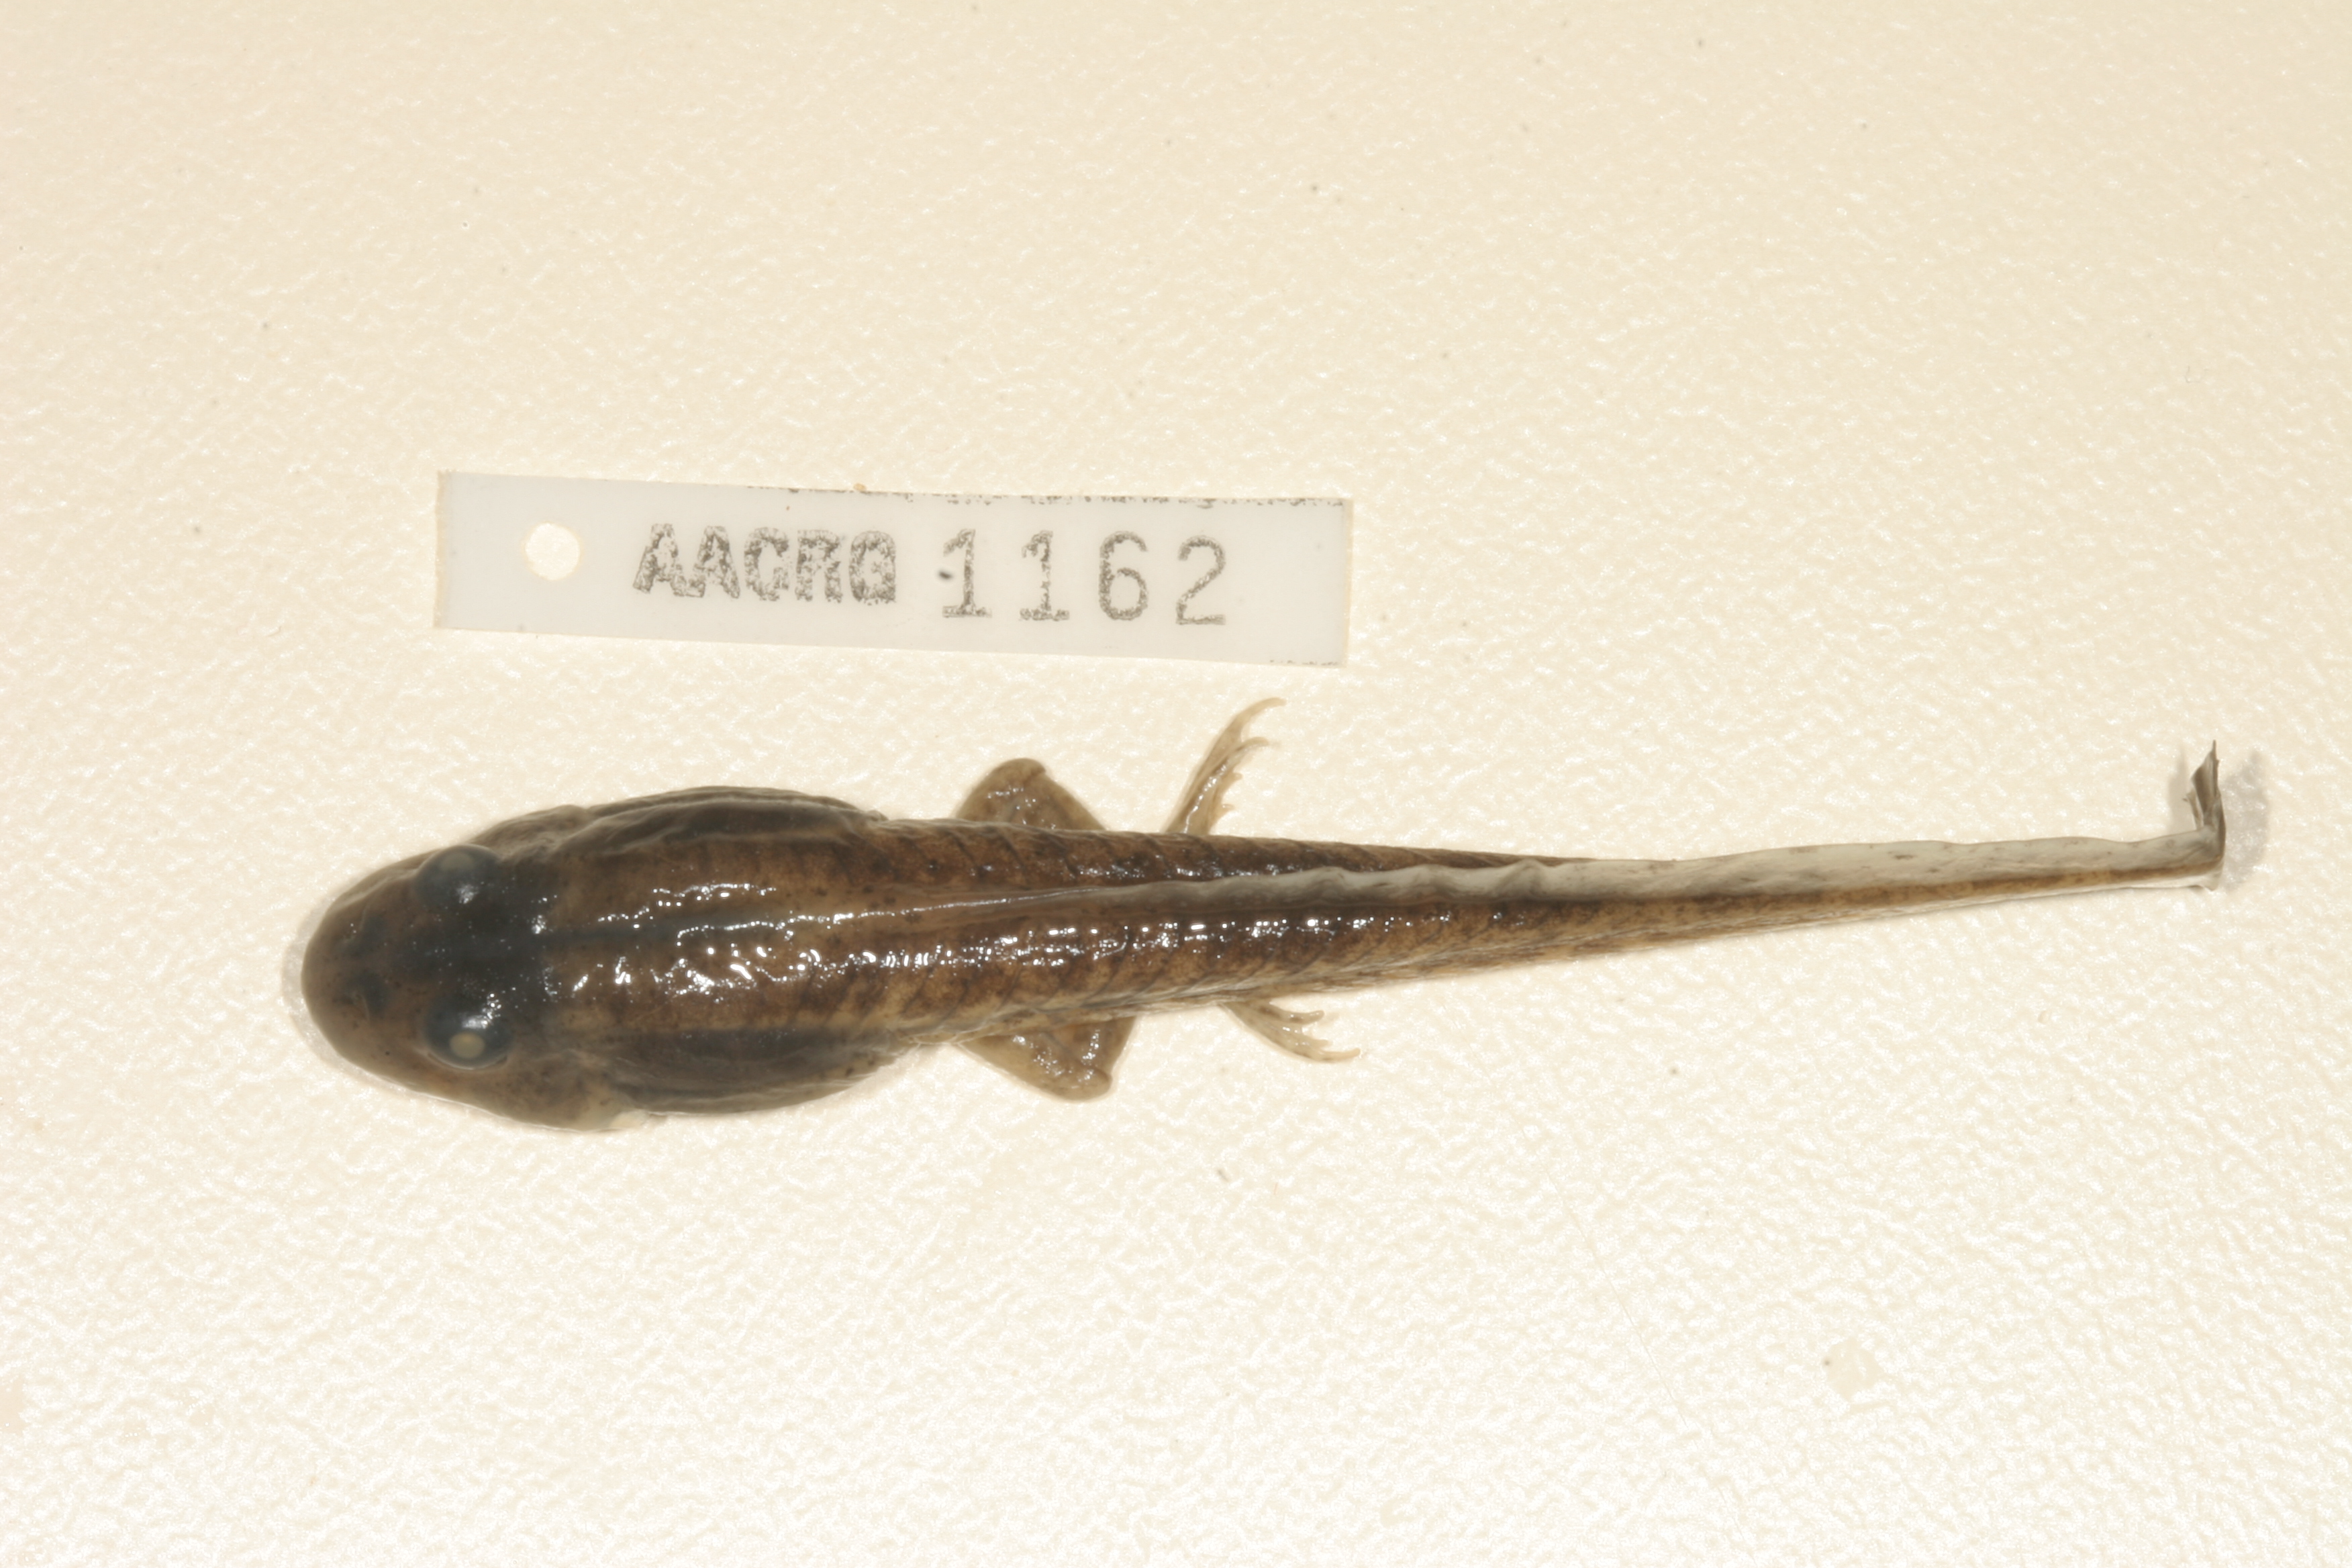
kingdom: Animalia
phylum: Chordata
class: Amphibia
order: Anura
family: Pyxicephalidae
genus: Amietia
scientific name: Amietia delalandii
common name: Delalande's river frog
